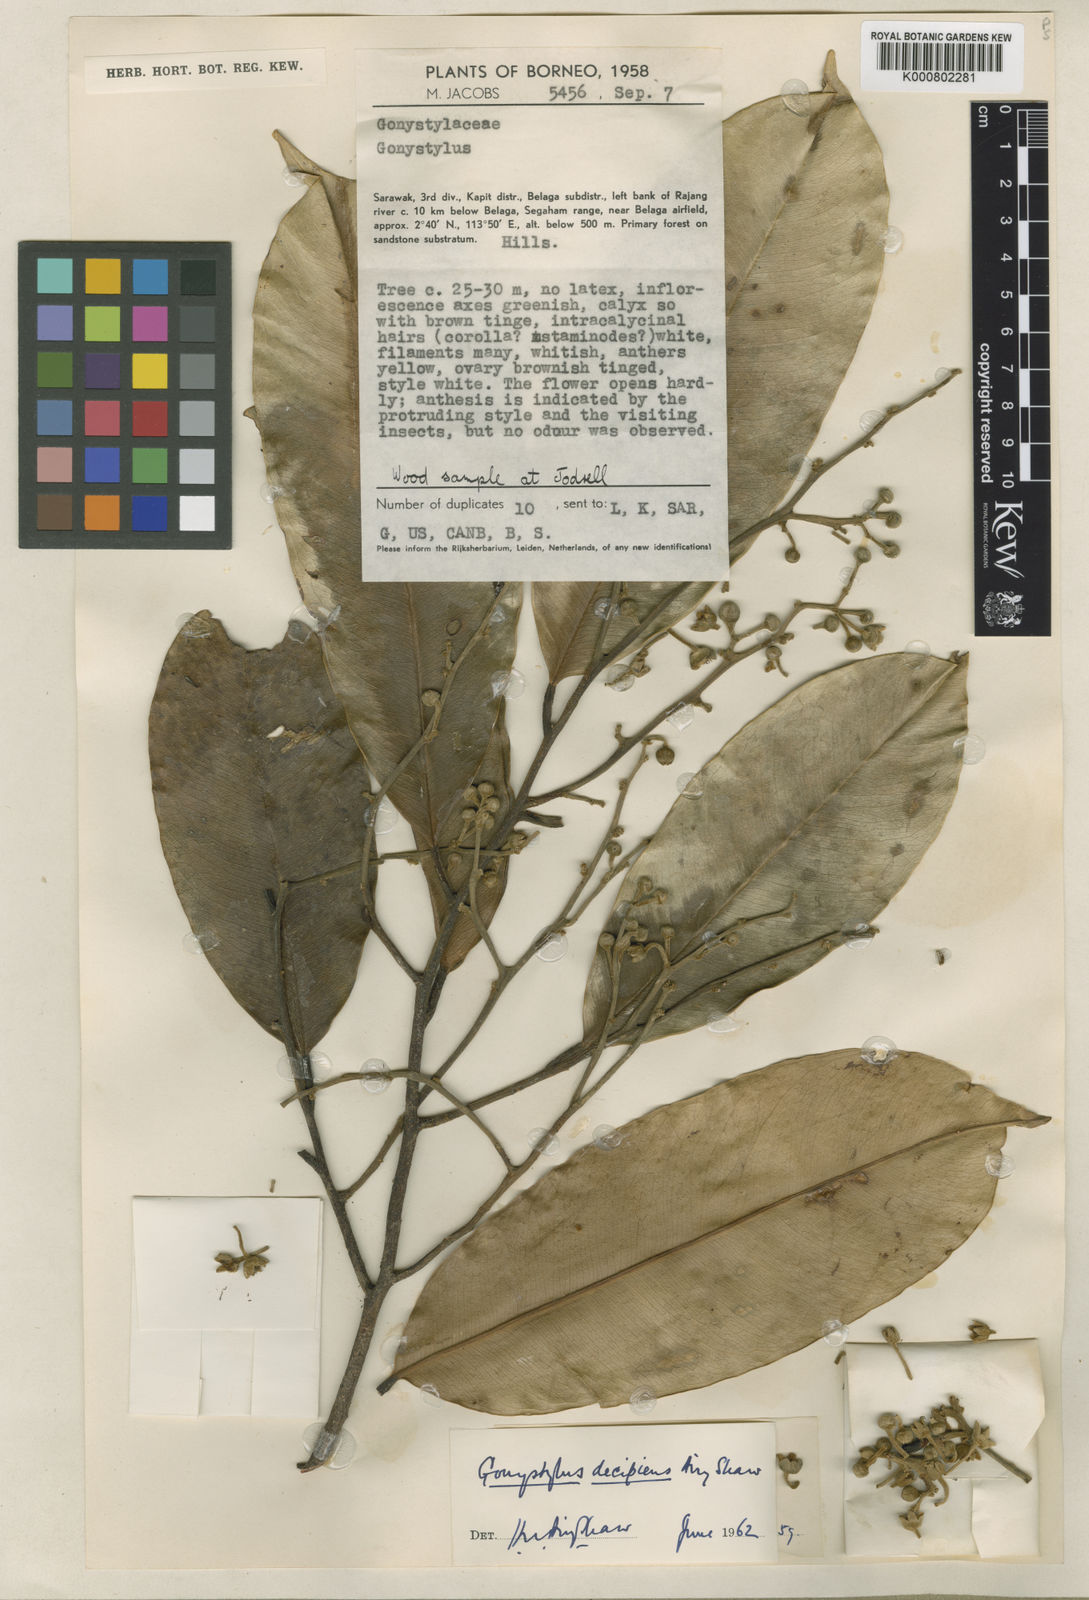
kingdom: Plantae
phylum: Tracheophyta
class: Magnoliopsida
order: Malvales
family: Thymelaeaceae
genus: Gonystylus
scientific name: Gonystylus decipiens
